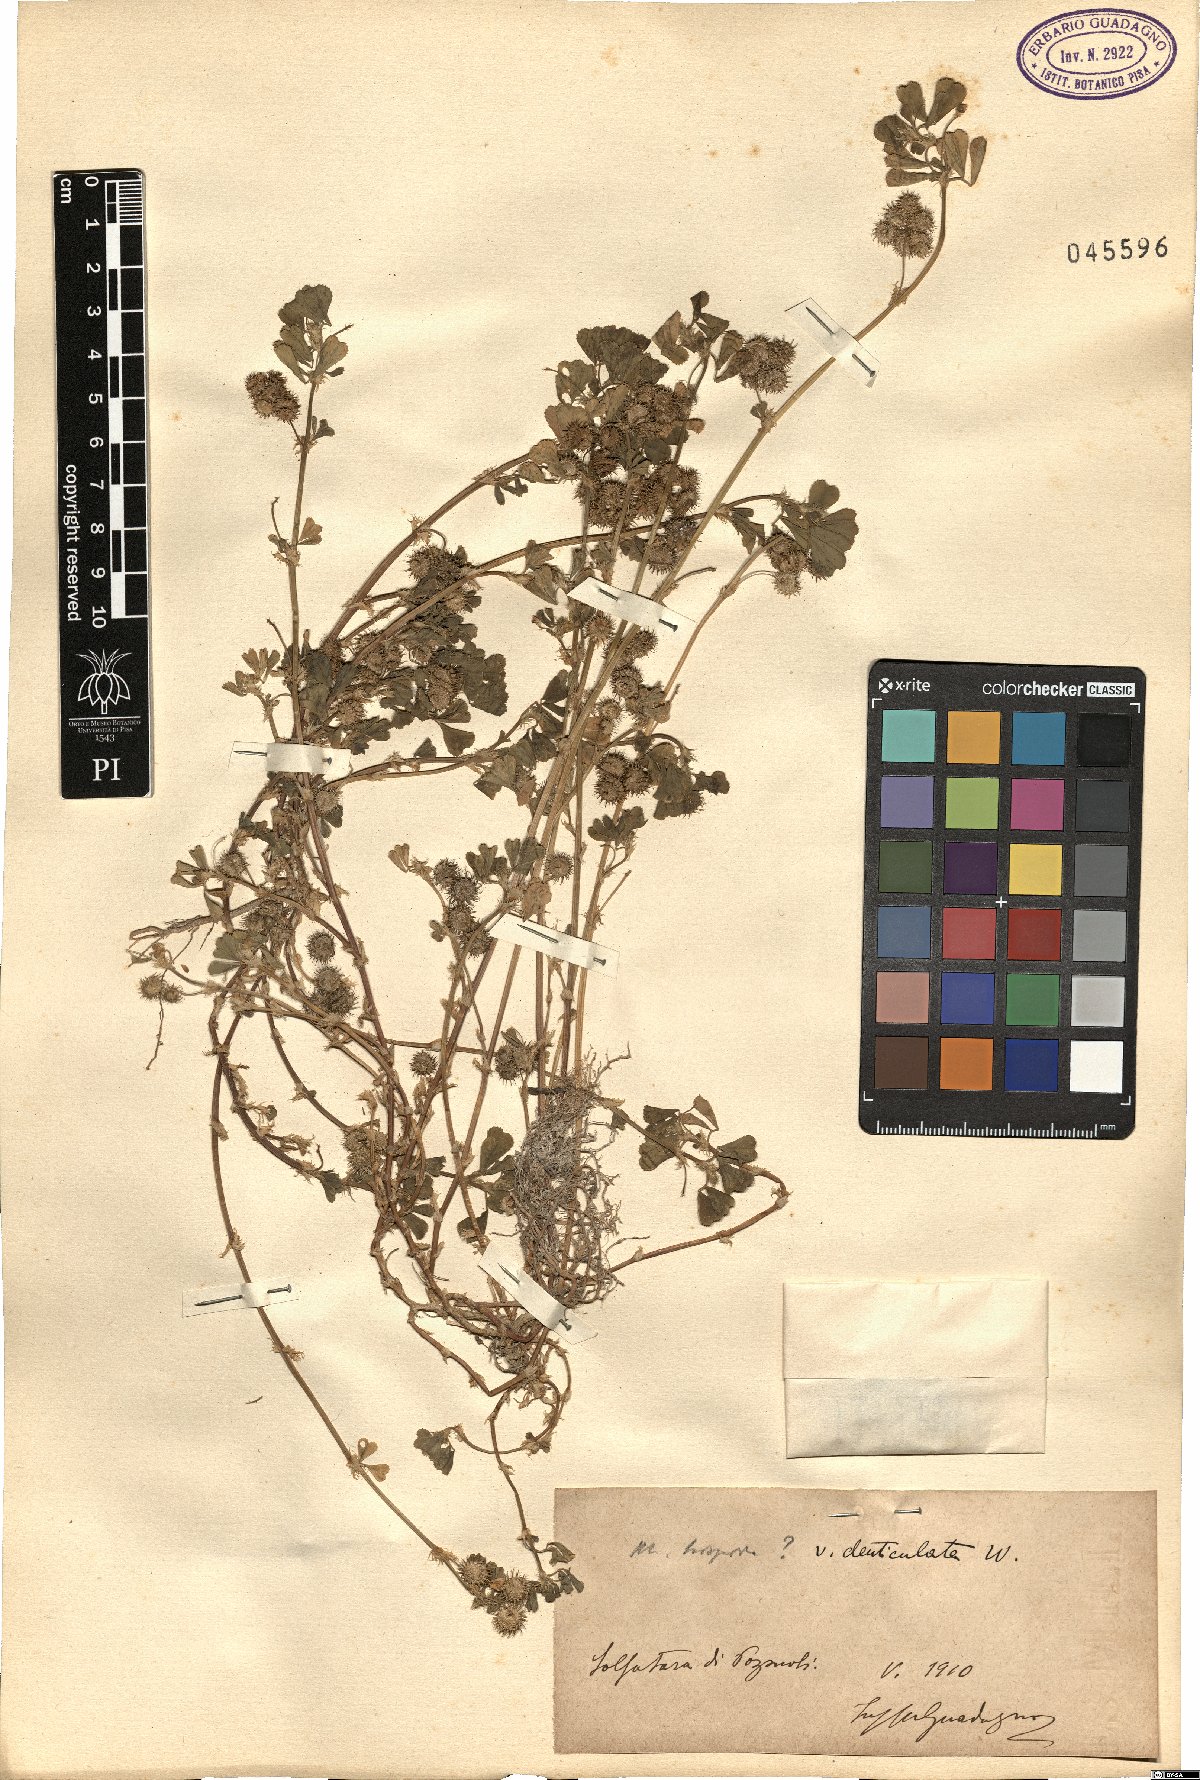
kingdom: Plantae
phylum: Tracheophyta
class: Magnoliopsida
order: Fabales
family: Fabaceae
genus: Medicago
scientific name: Medicago polymorpha
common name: Burclover
